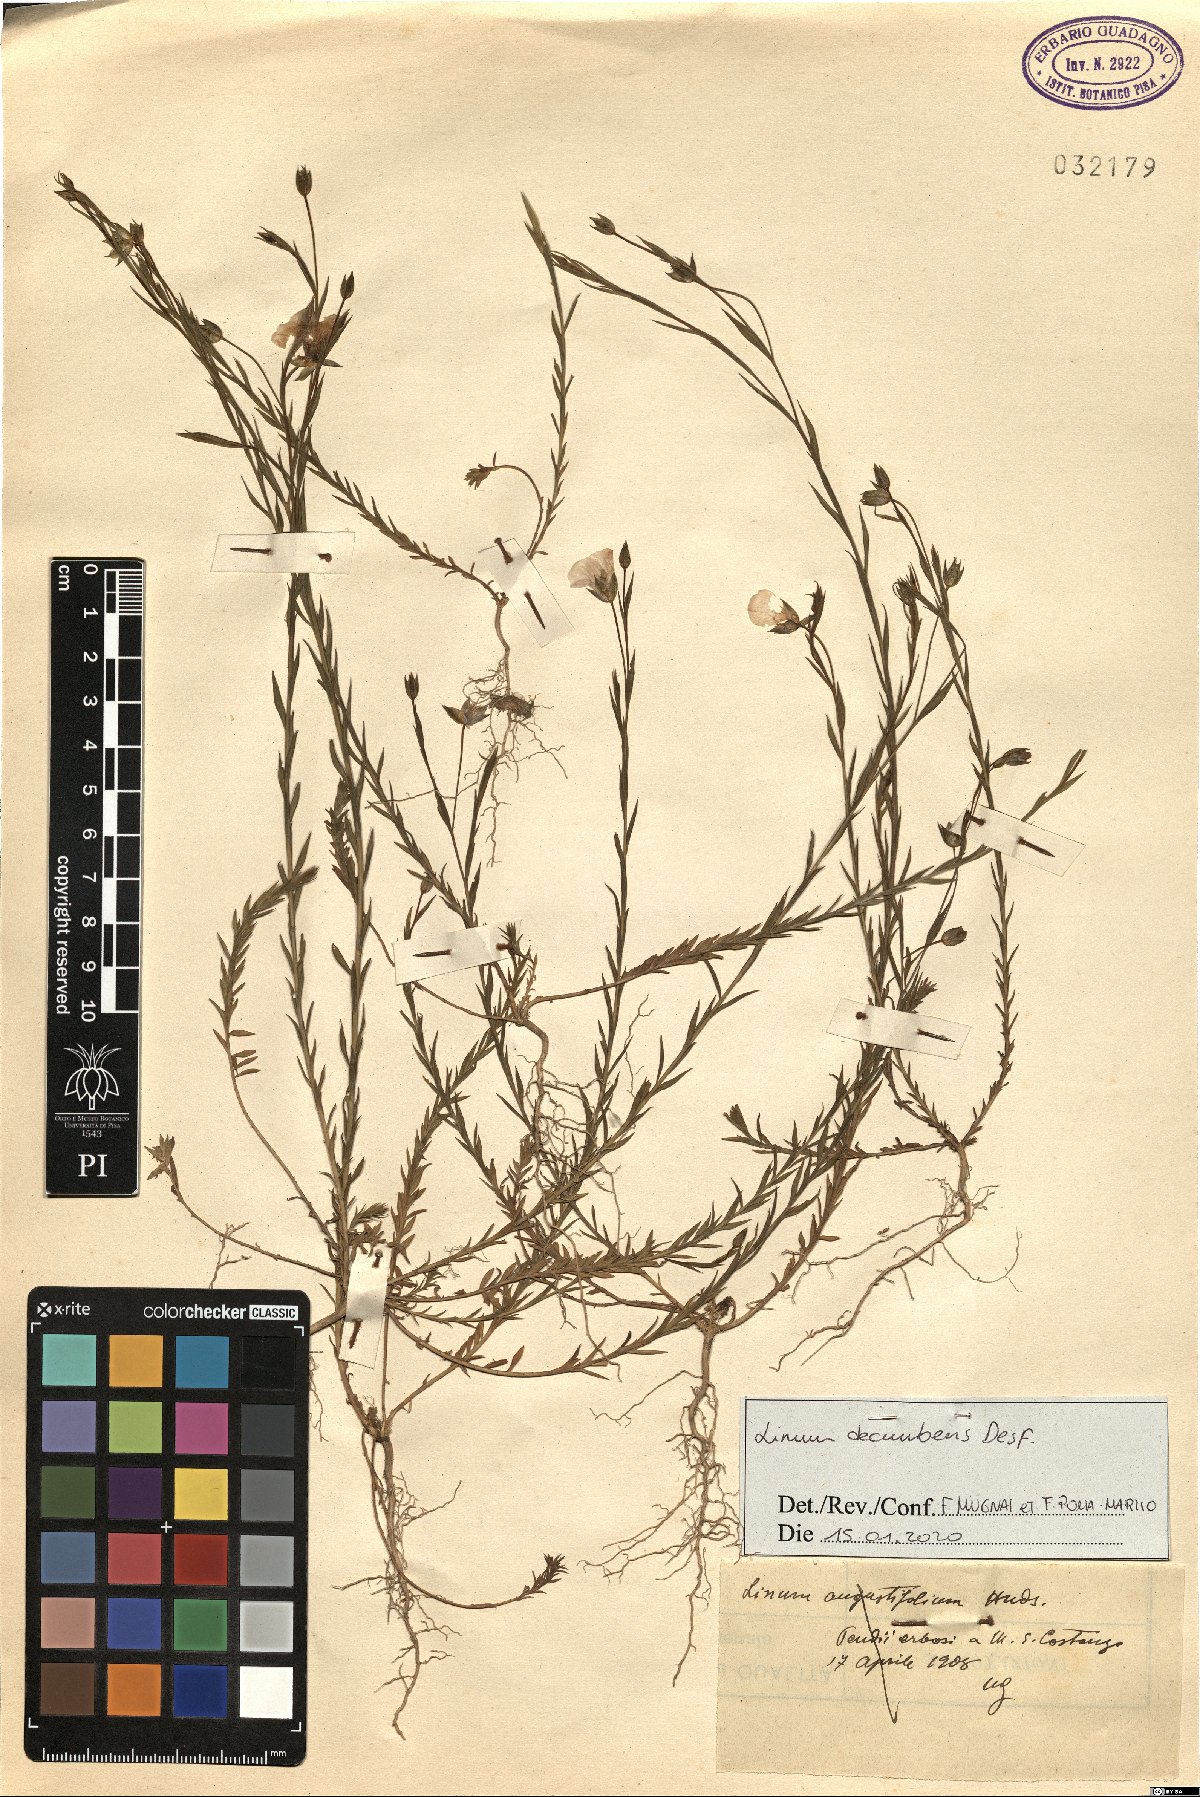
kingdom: Plantae
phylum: Tracheophyta
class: Magnoliopsida
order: Malpighiales
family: Linaceae
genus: Linum
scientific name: Linum decumbens
